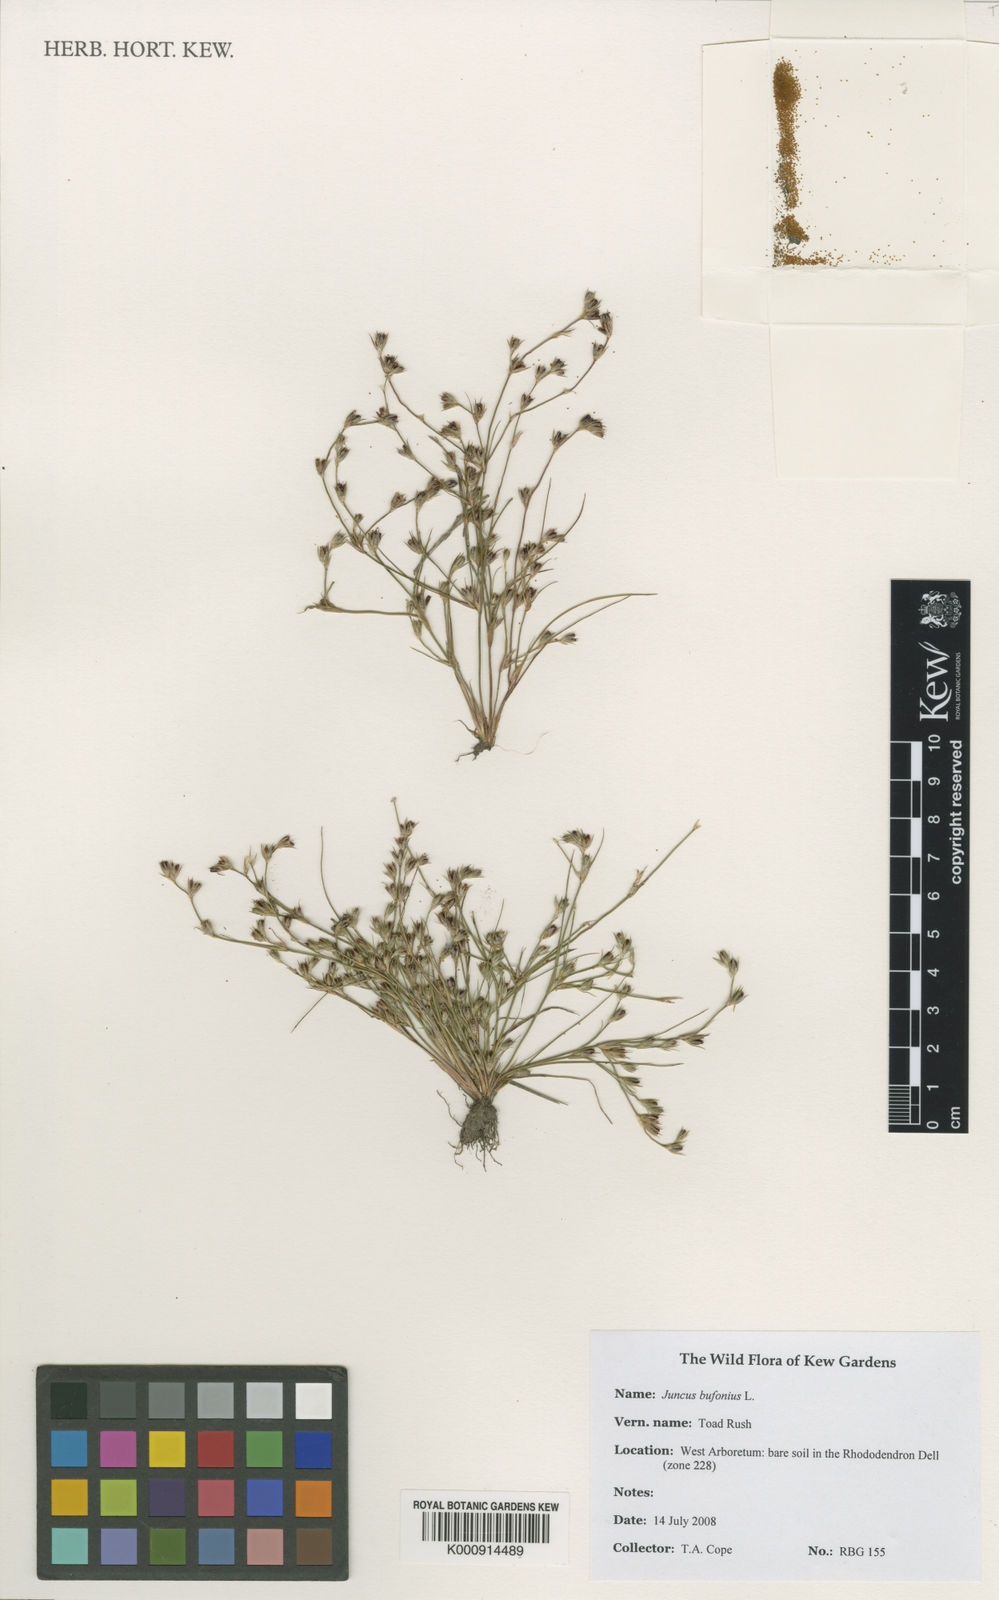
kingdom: Plantae
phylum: Tracheophyta
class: Liliopsida
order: Poales
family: Juncaceae
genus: Juncus
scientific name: Juncus bufonius
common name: Toad rush
